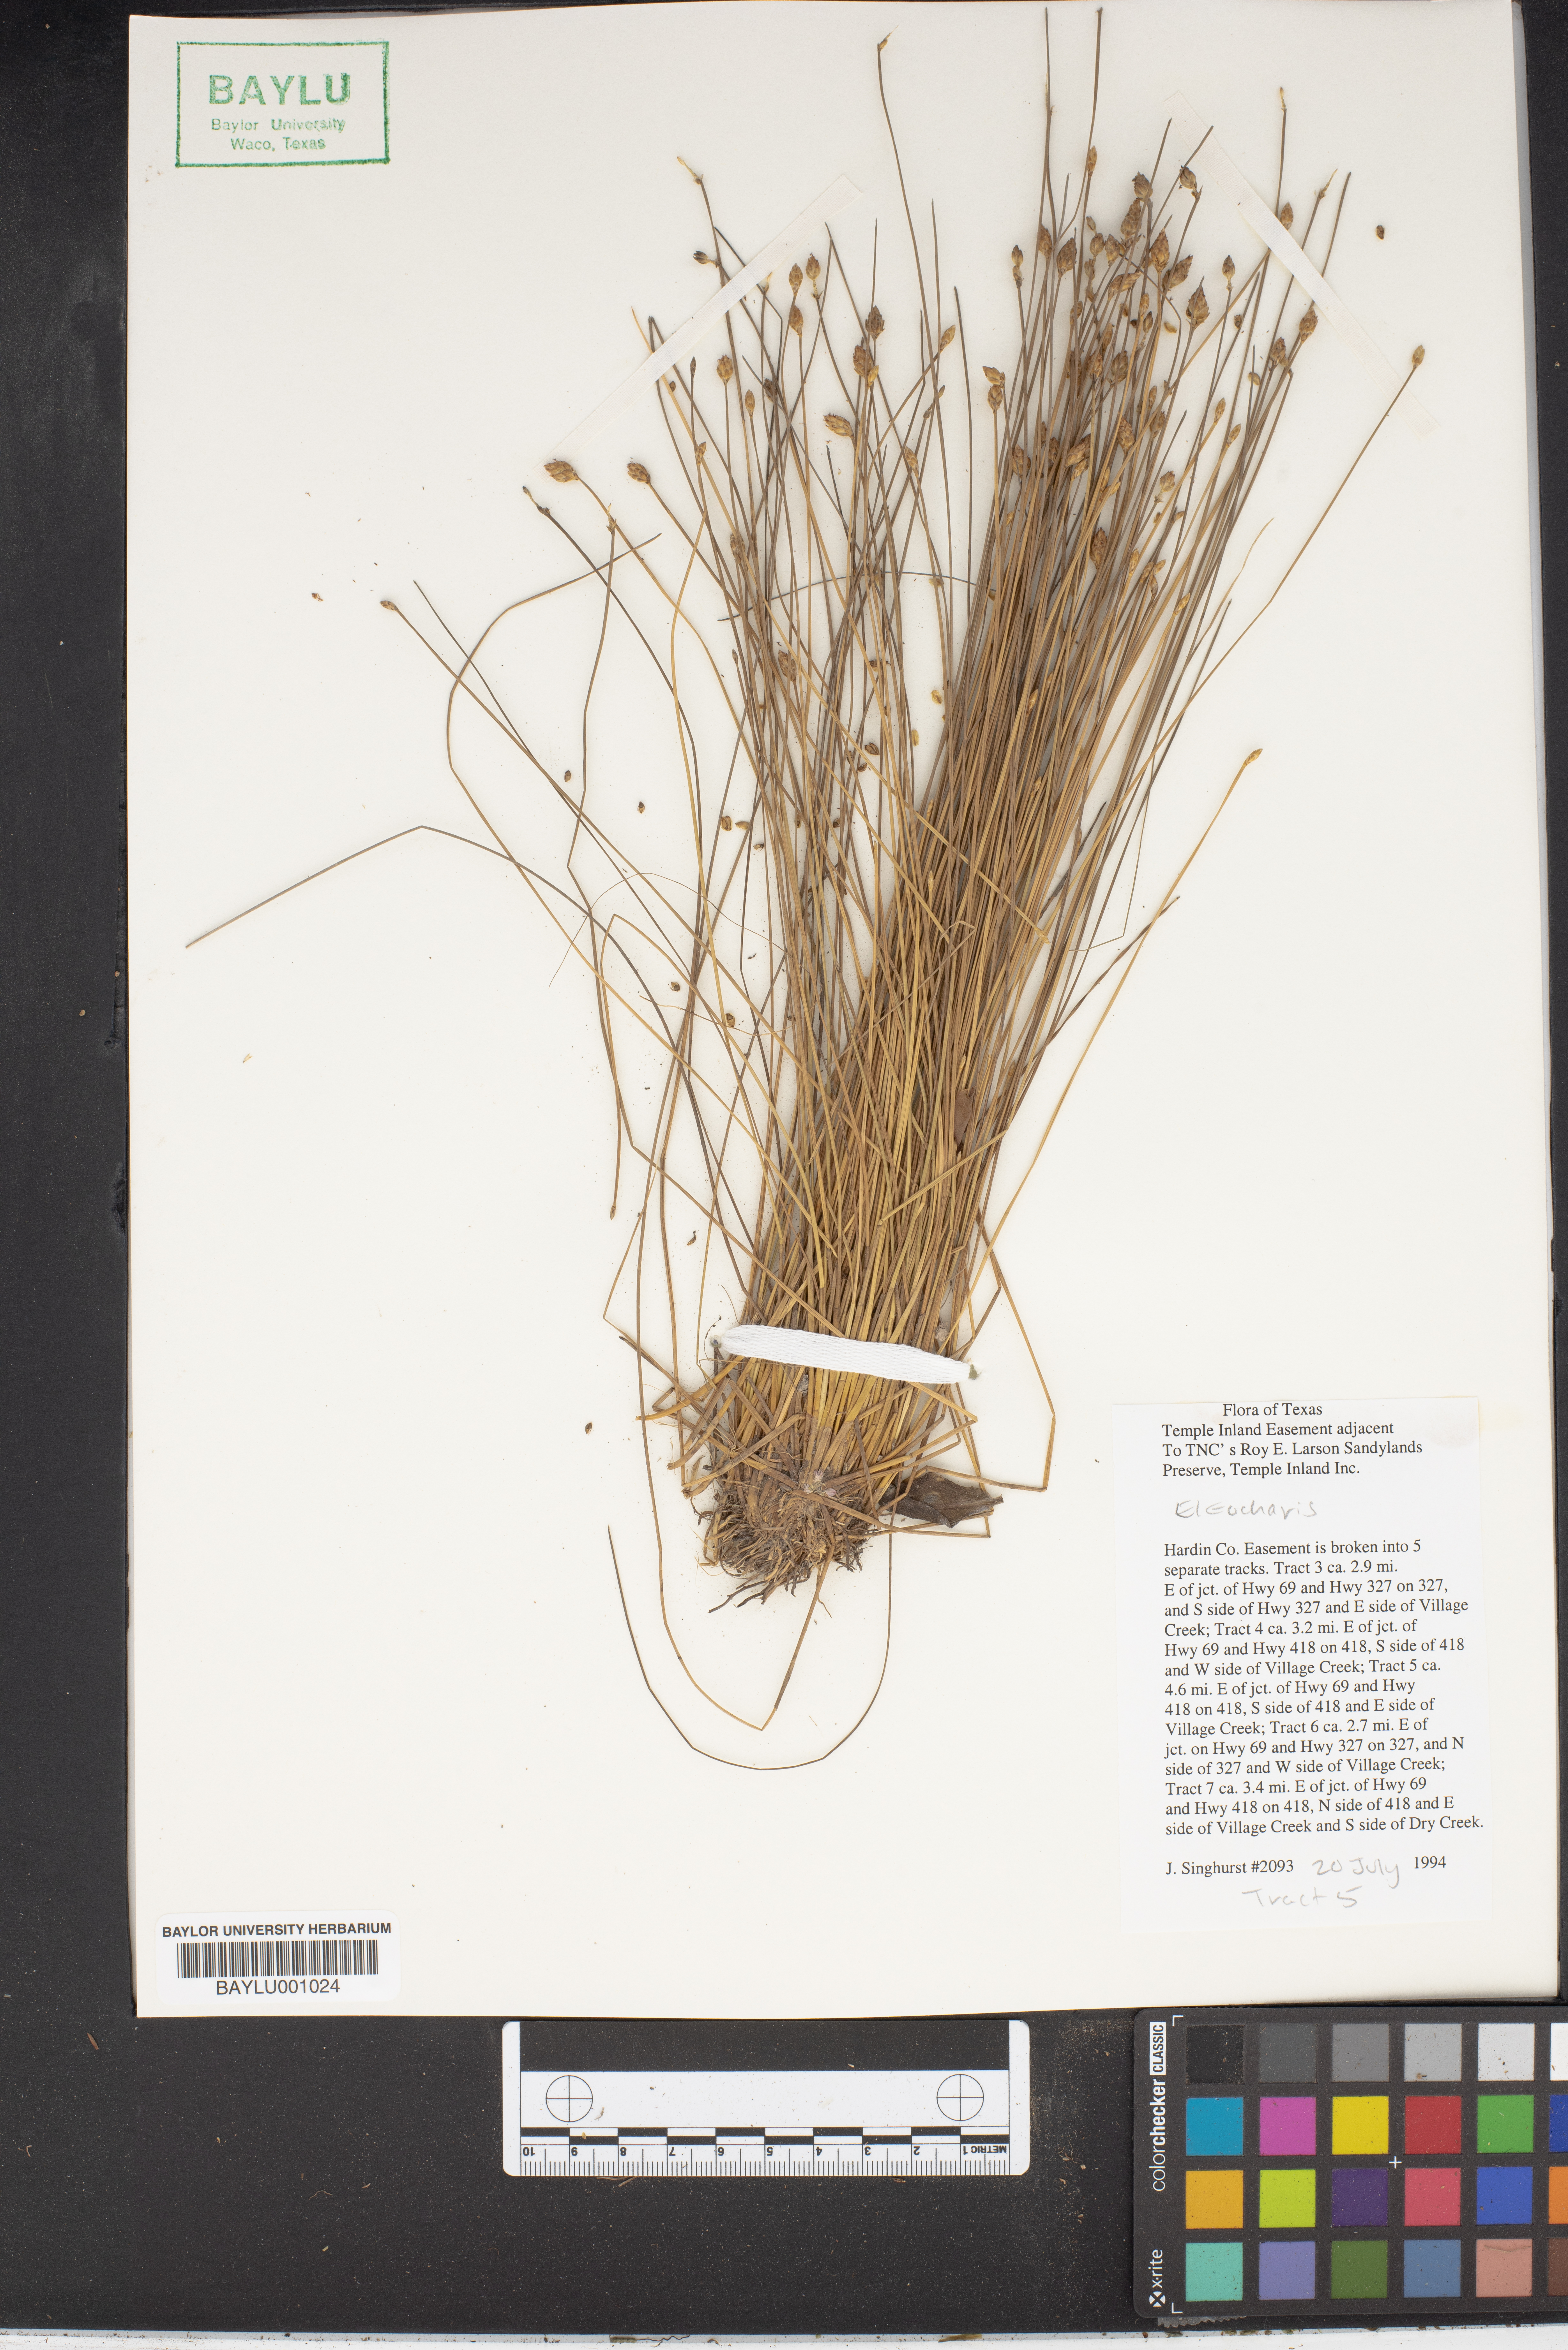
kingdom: Plantae
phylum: Tracheophyta
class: Liliopsida
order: Poales
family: Cyperaceae
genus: Eleocharis
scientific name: Eleocharis
